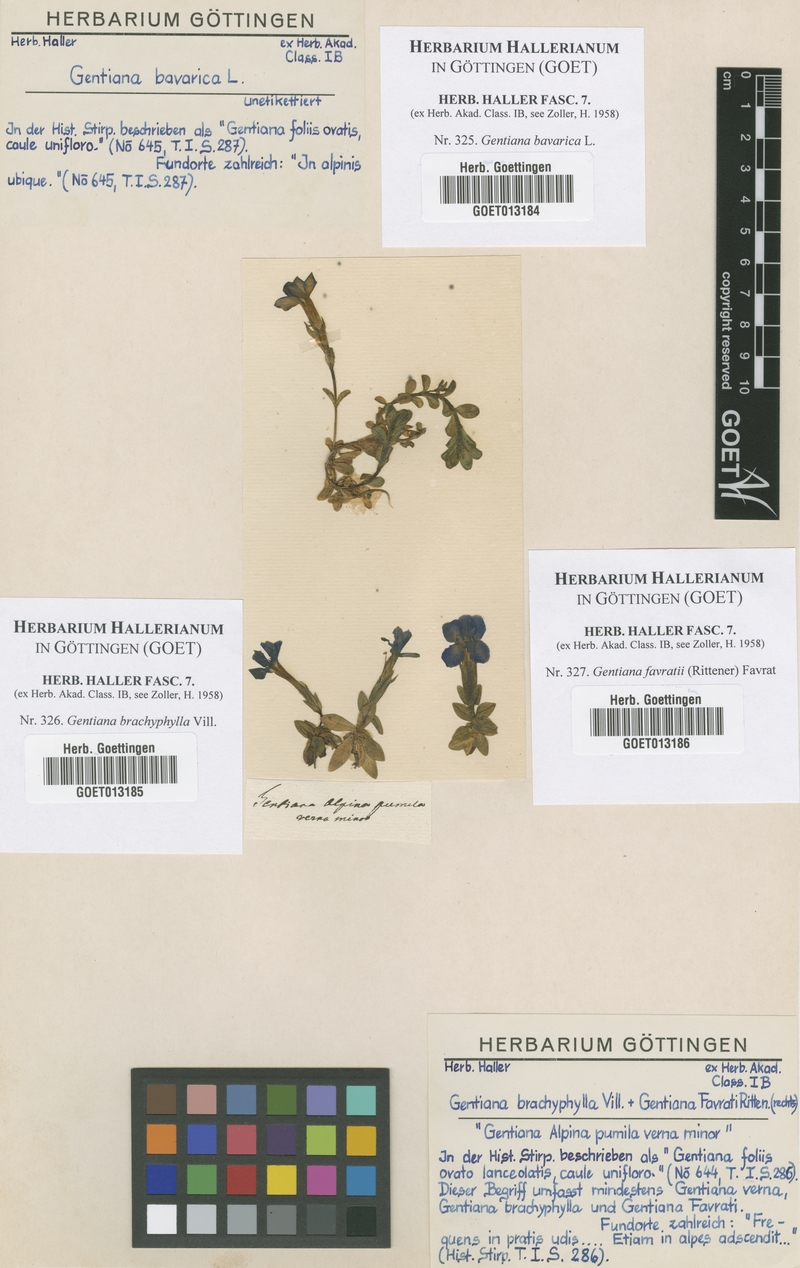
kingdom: Plantae
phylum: Tracheophyta
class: Magnoliopsida
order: Gentianales
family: Gentianaceae
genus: Gentiana
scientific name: Gentiana bavarica
